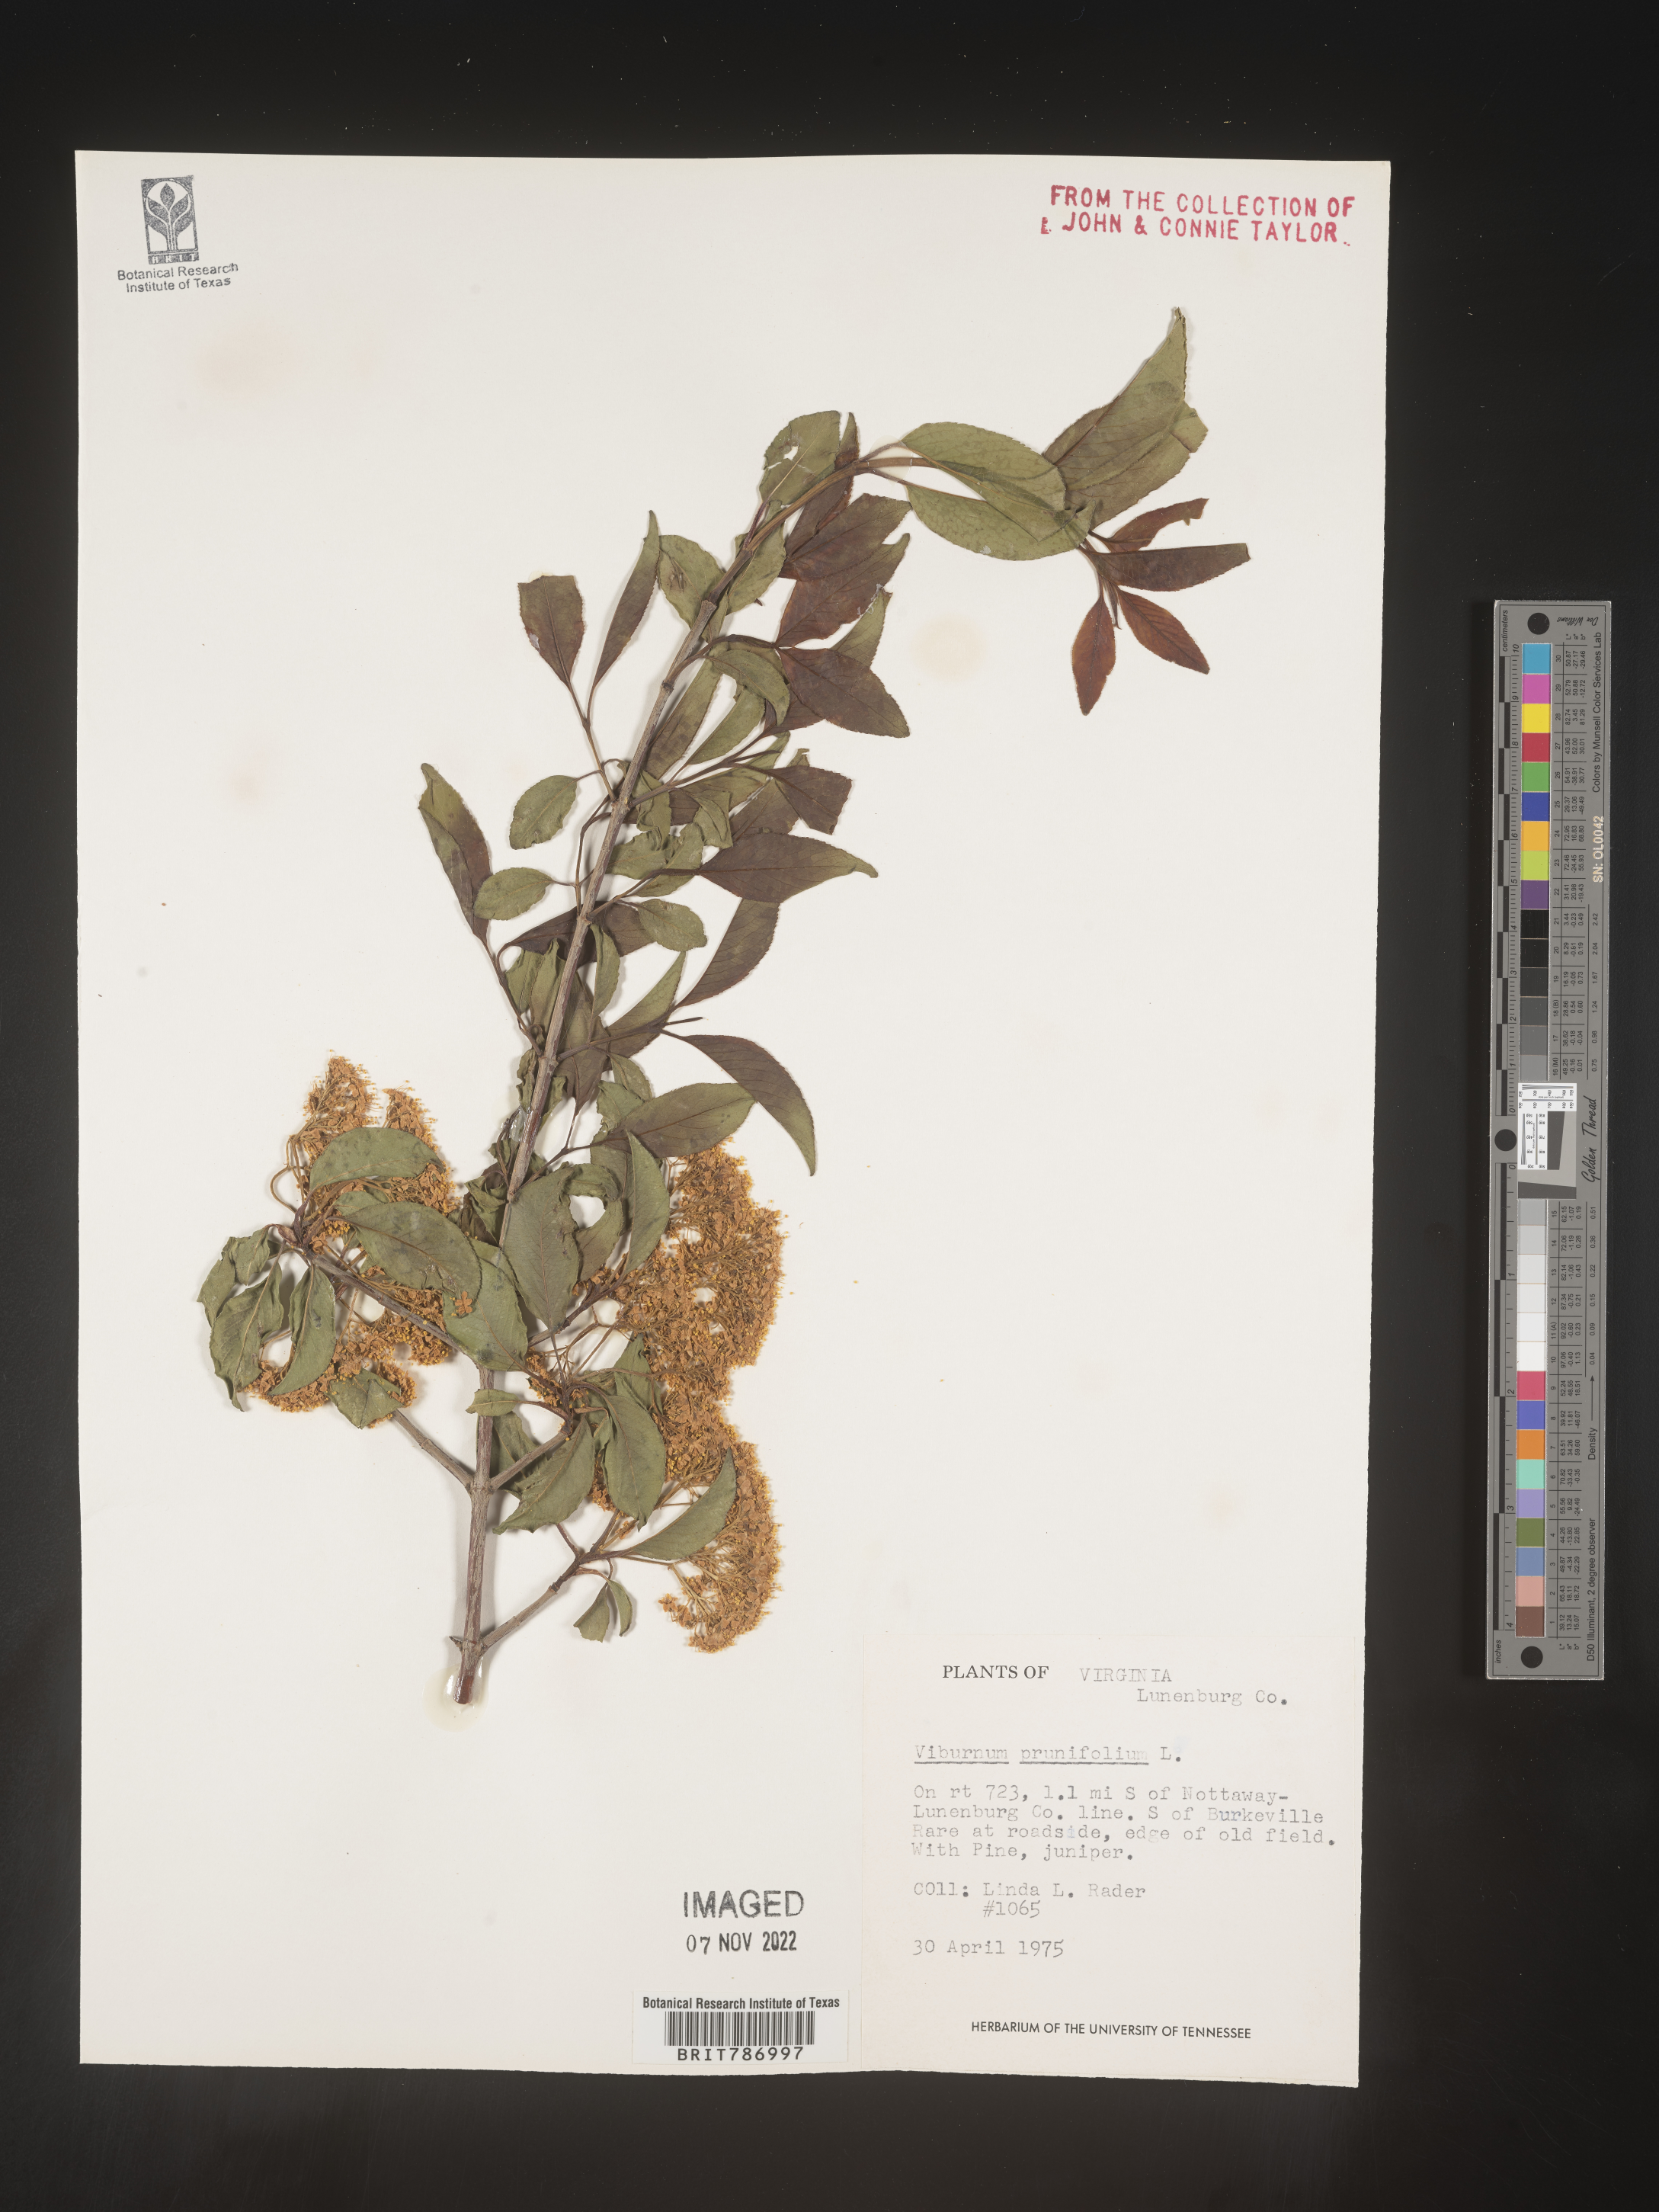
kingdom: Plantae
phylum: Tracheophyta
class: Magnoliopsida
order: Dipsacales
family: Viburnaceae
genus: Viburnum
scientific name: Viburnum prunifolium
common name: Black haw
